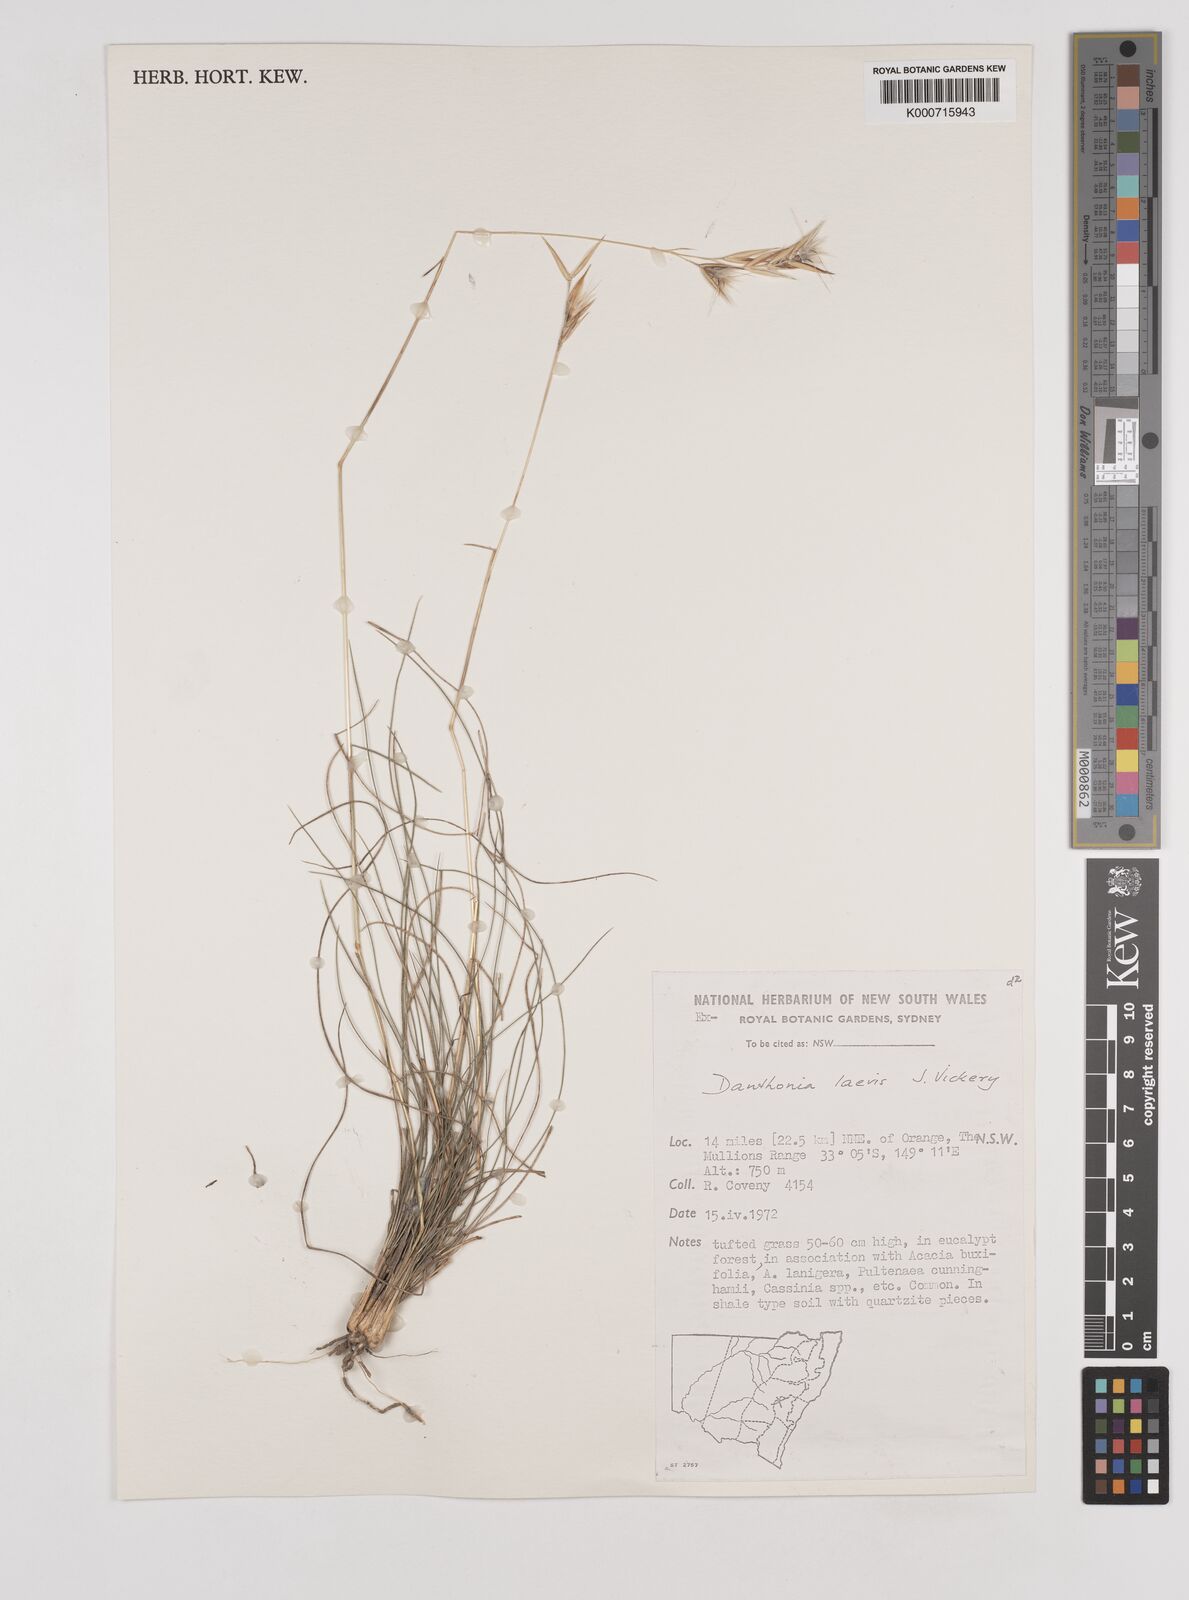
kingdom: Plantae
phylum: Tracheophyta
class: Liliopsida
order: Poales
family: Poaceae
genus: Rytidosperma
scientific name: Rytidosperma laeve
